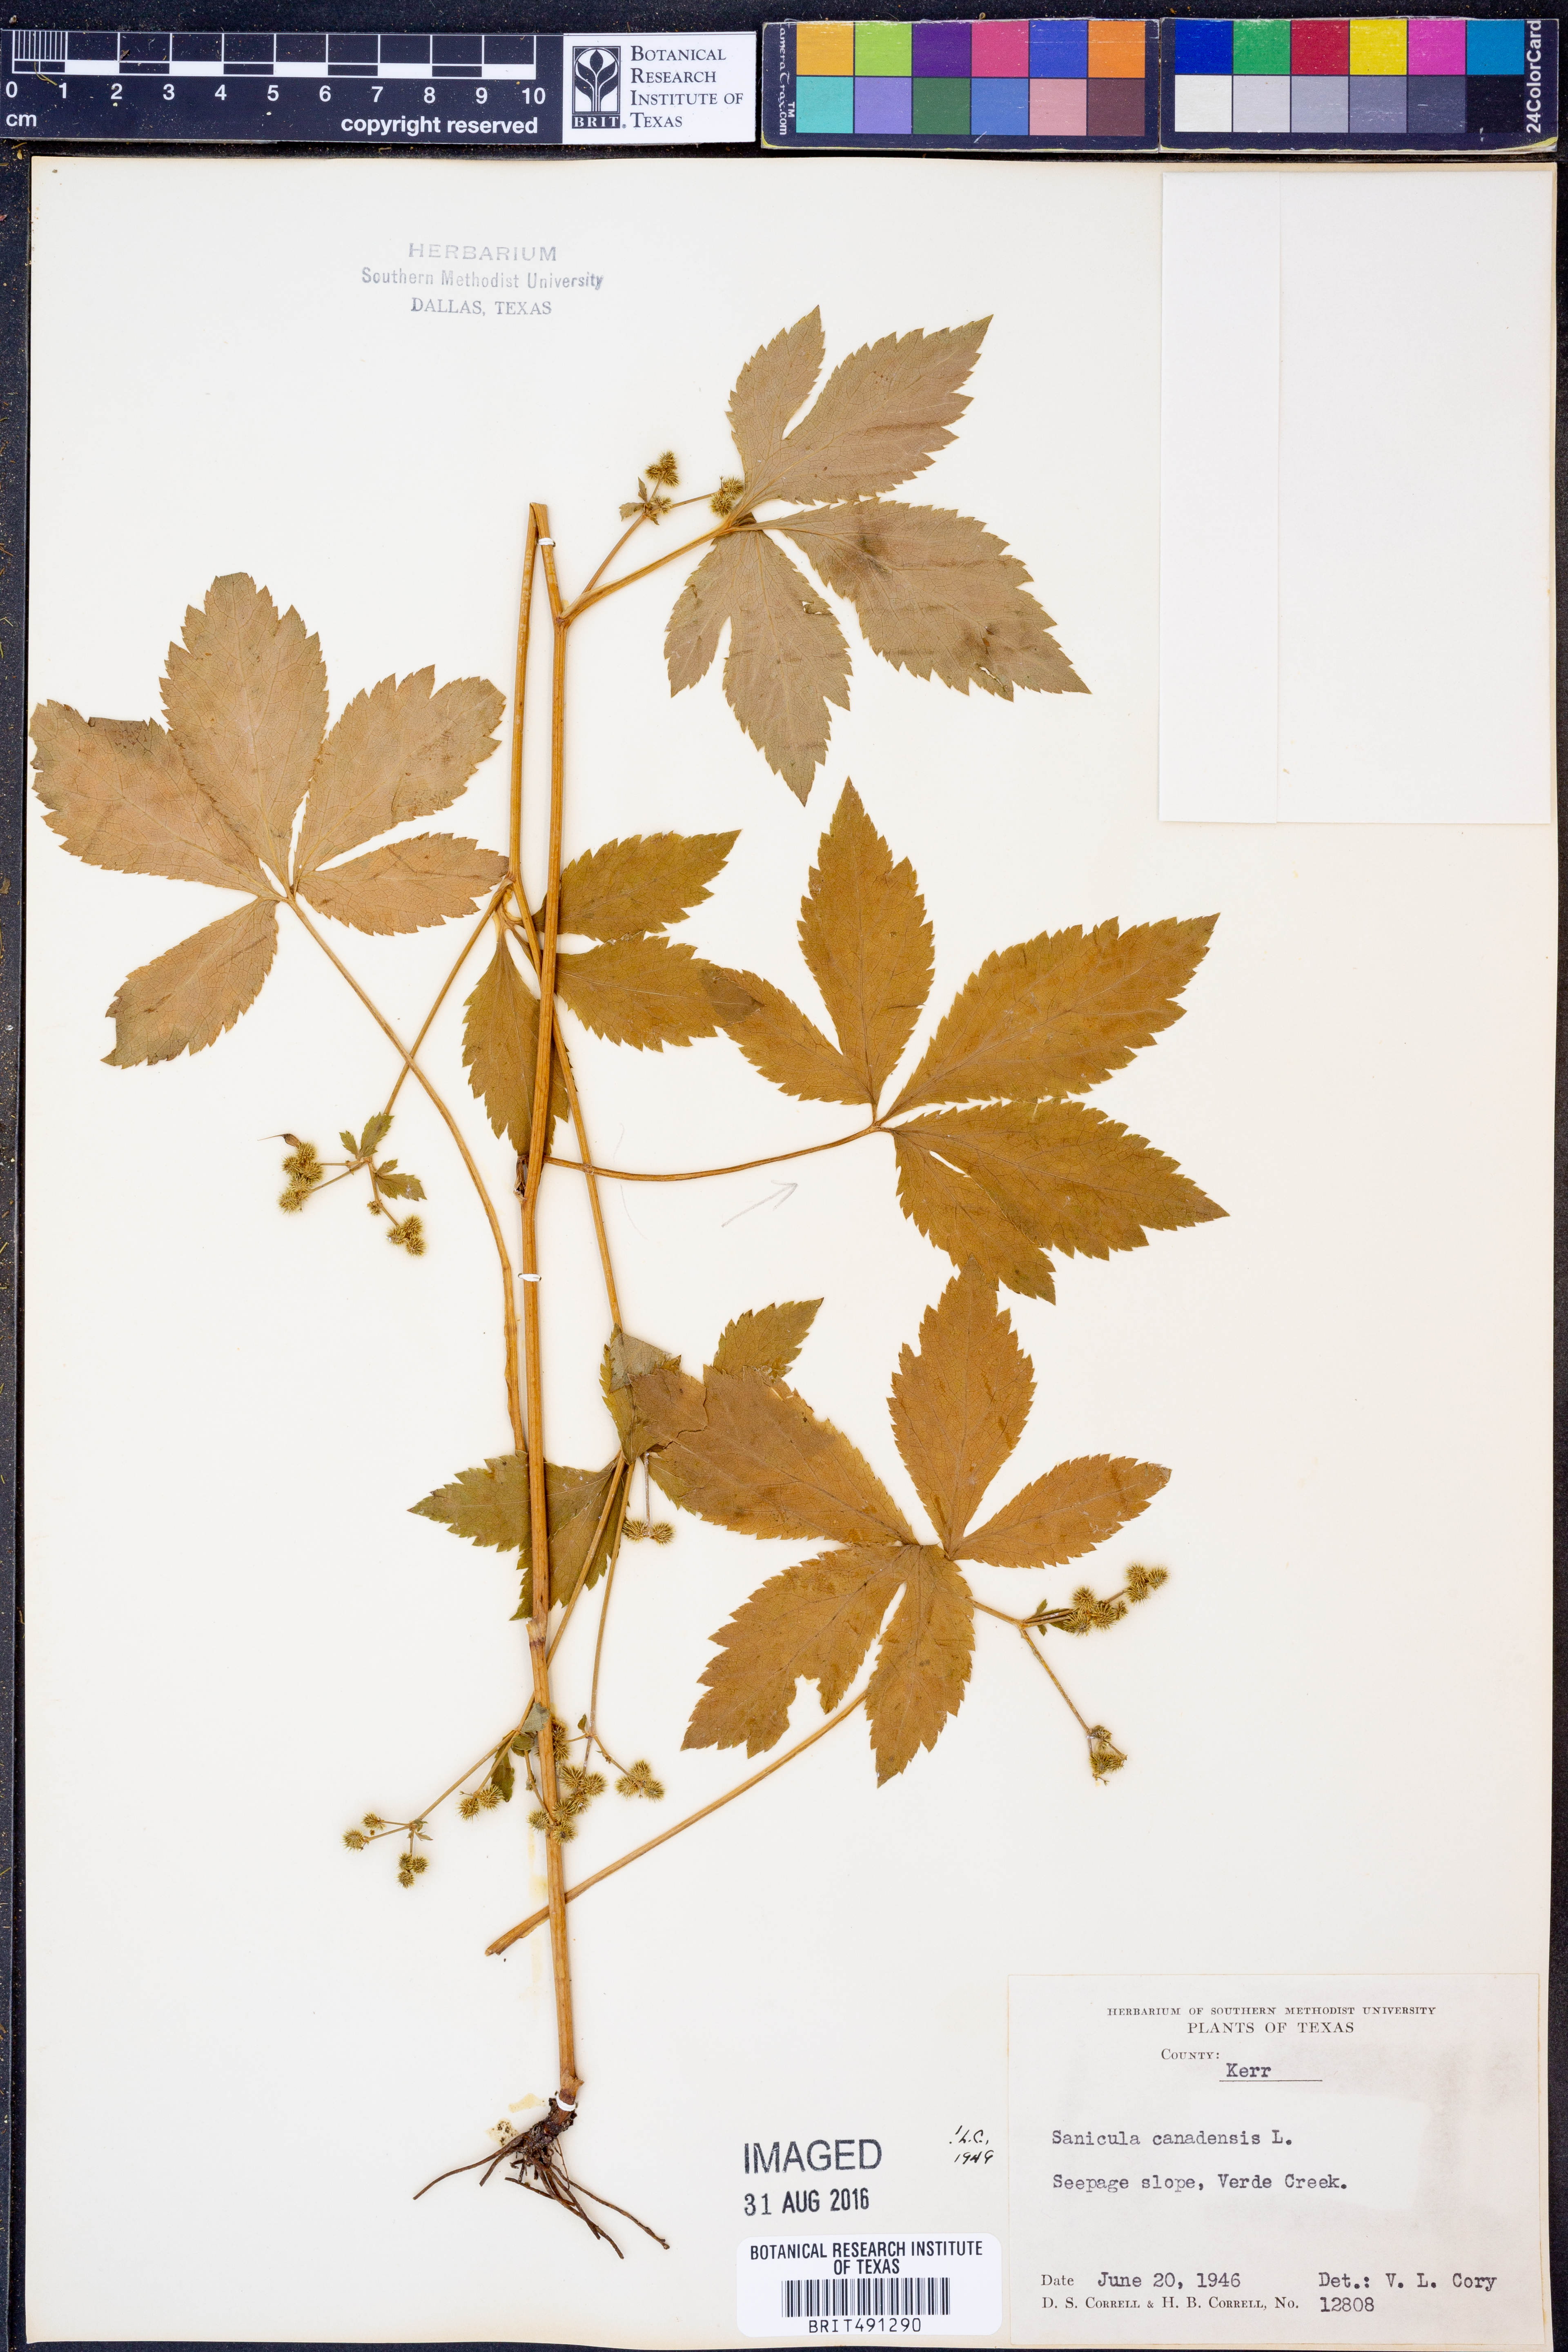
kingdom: Plantae
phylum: Tracheophyta
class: Magnoliopsida
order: Apiales
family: Apiaceae
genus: Sanicula
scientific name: Sanicula canadensis
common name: Canada sanicle
